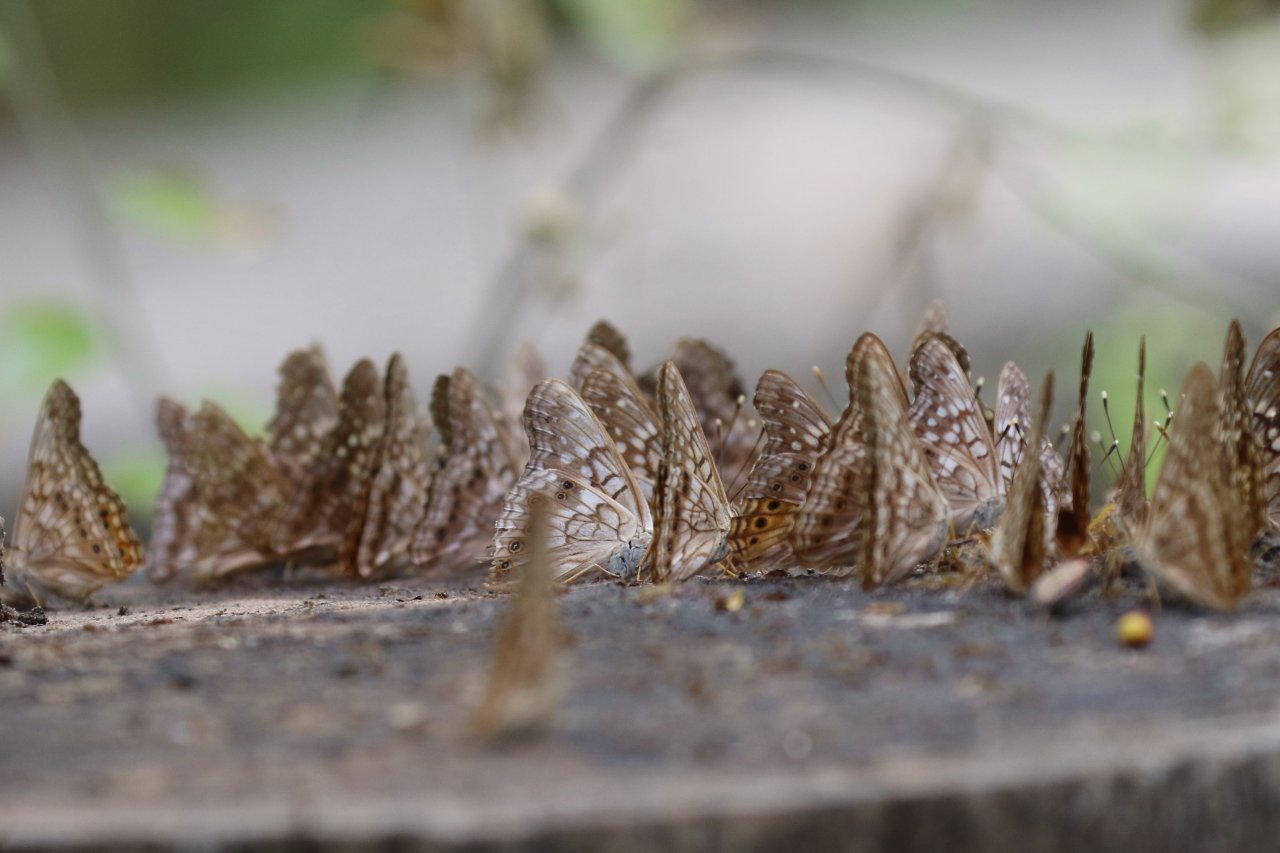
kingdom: Animalia
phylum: Arthropoda
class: Insecta
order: Lepidoptera
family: Nymphalidae
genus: Asterocampa
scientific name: Asterocampa clyton
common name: Tawny Emperor
